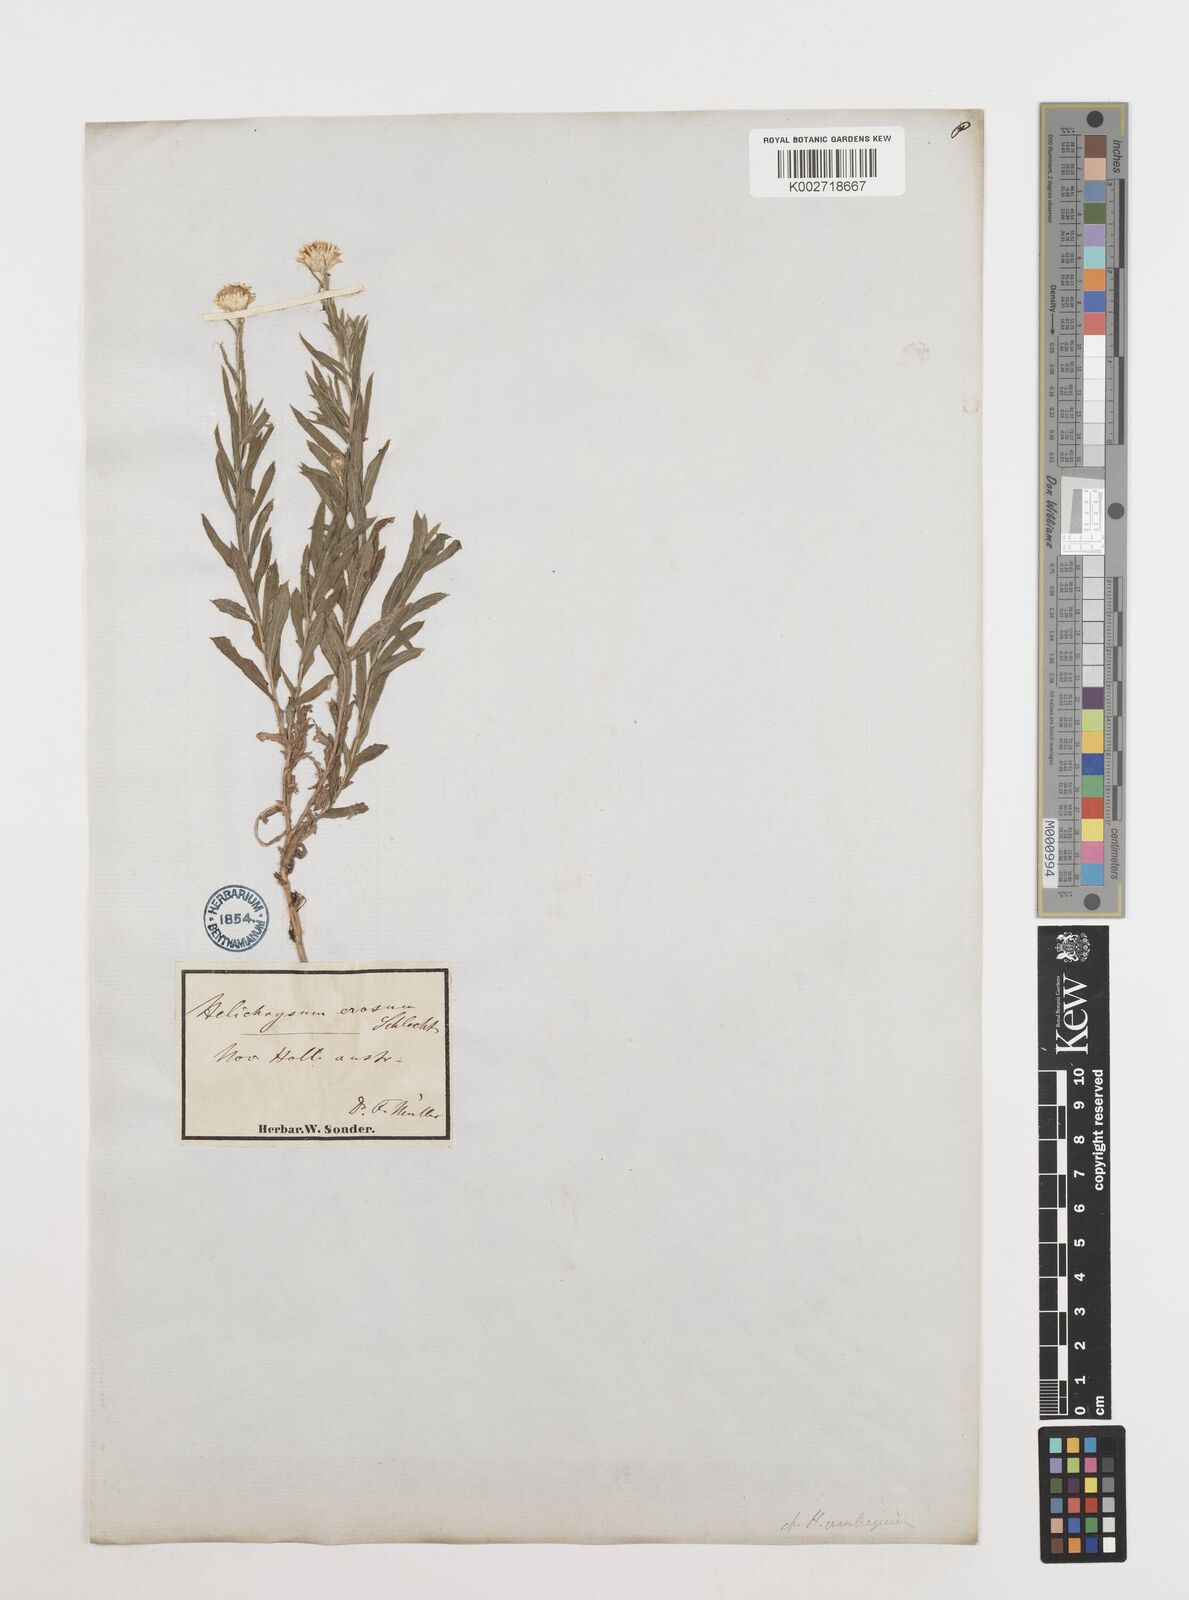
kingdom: Plantae
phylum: Tracheophyta
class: Magnoliopsida
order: Asterales
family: Asteraceae
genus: Coronidium
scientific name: Coronidium rutidolepis
